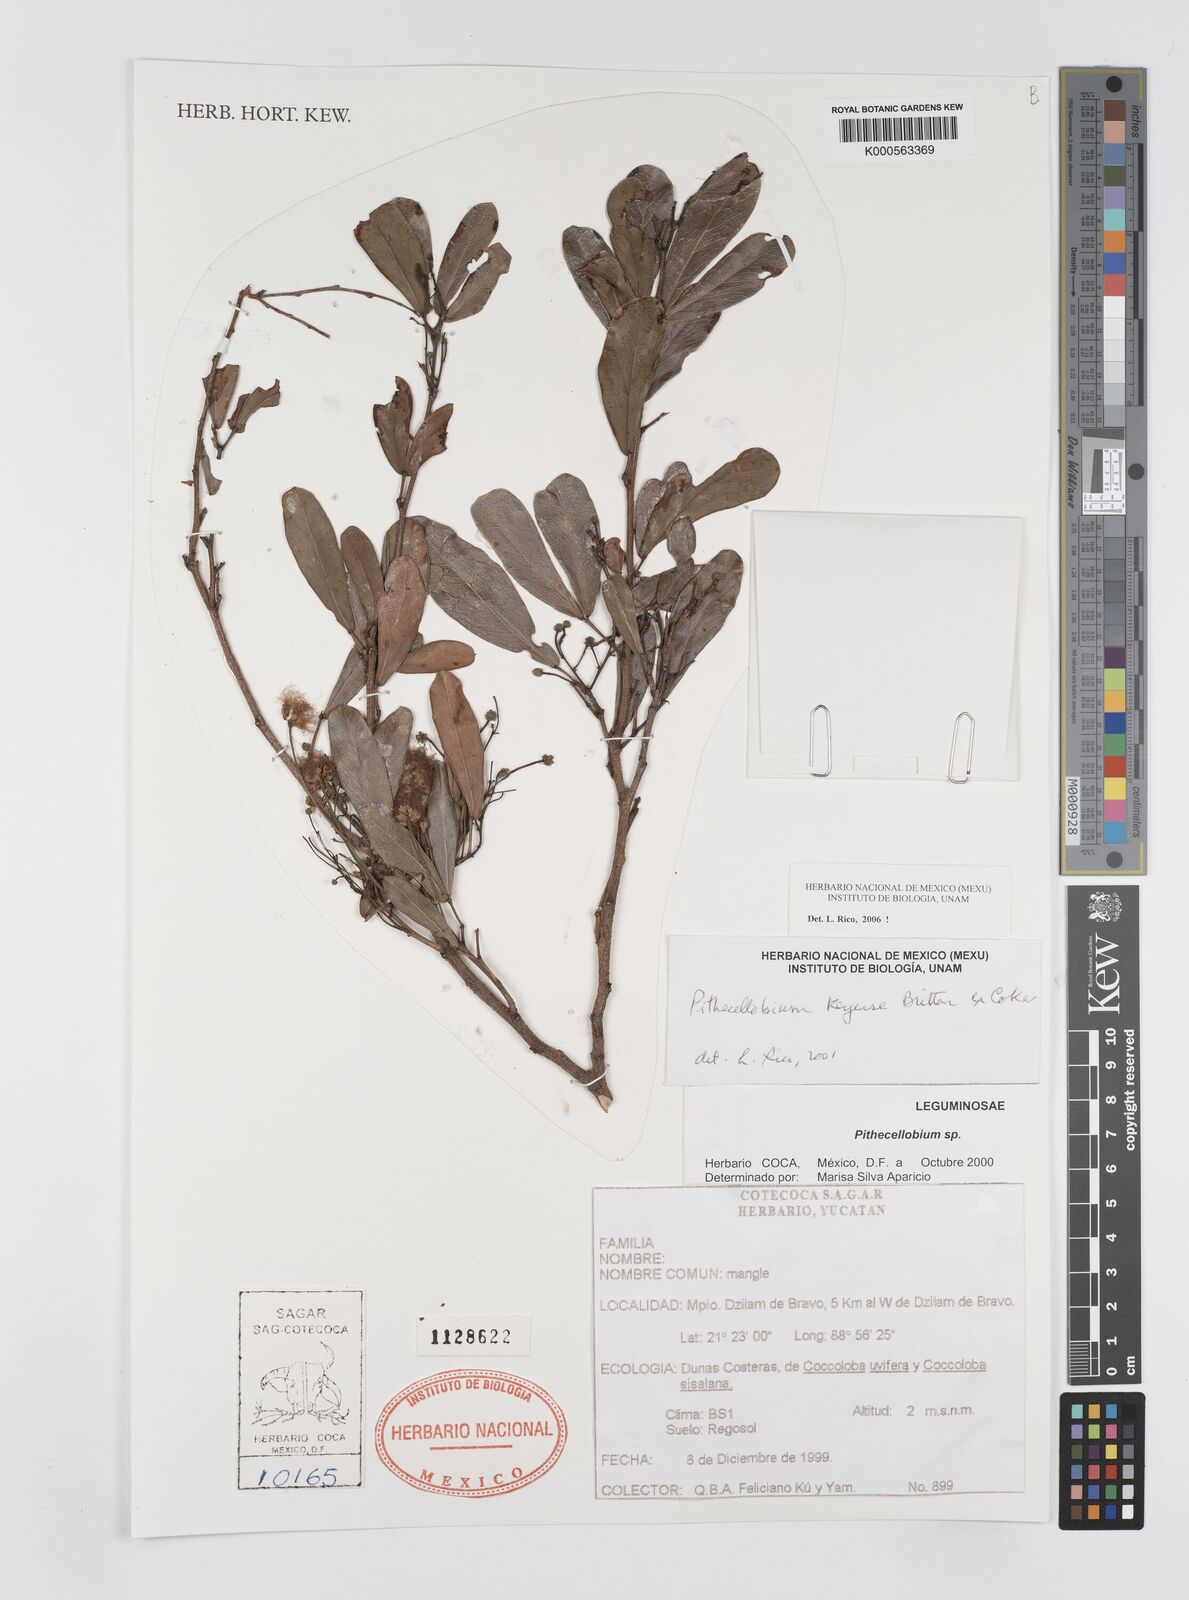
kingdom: Plantae
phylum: Tracheophyta
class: Magnoliopsida
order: Fabales
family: Fabaceae
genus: Pithecellobium
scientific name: Pithecellobium
